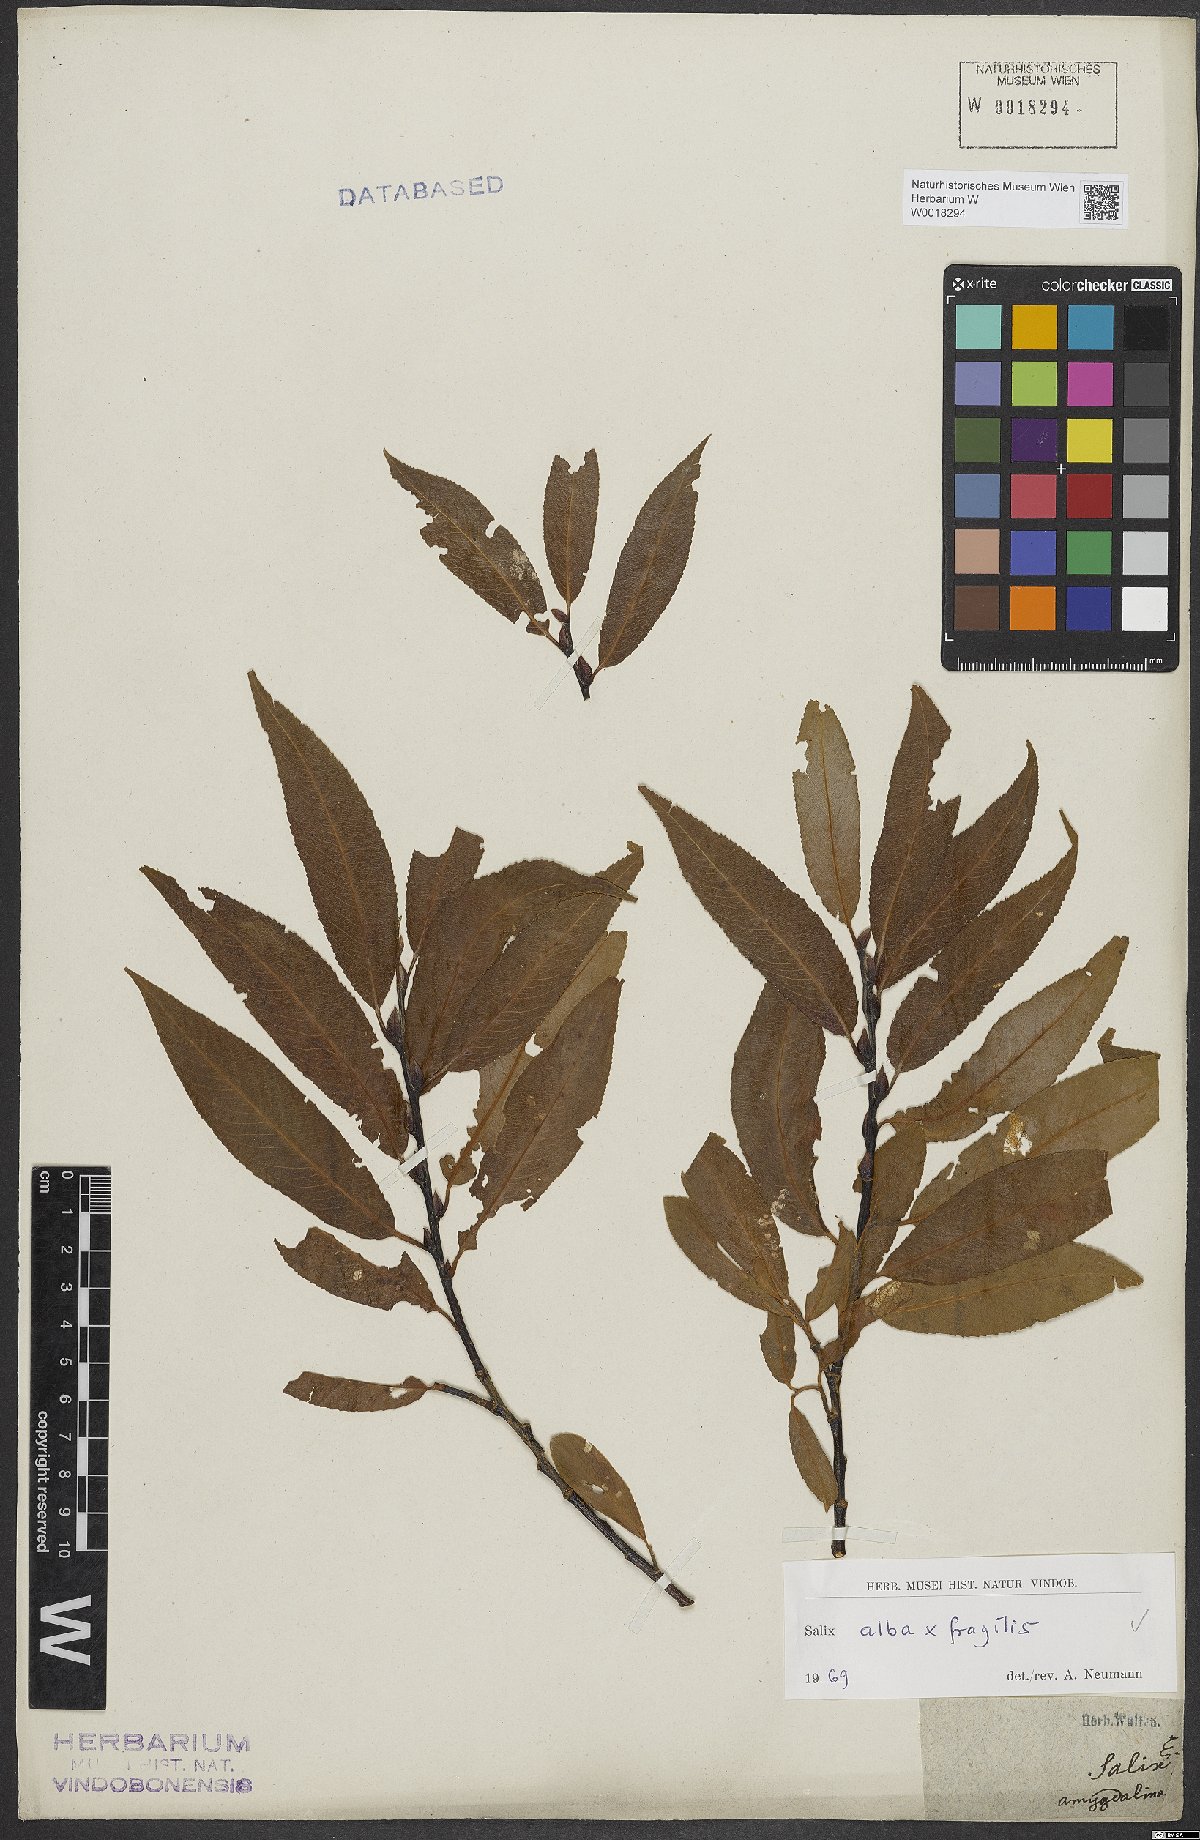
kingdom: Plantae
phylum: Tracheophyta
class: Magnoliopsida
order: Malpighiales
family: Salicaceae
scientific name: Salicaceae
